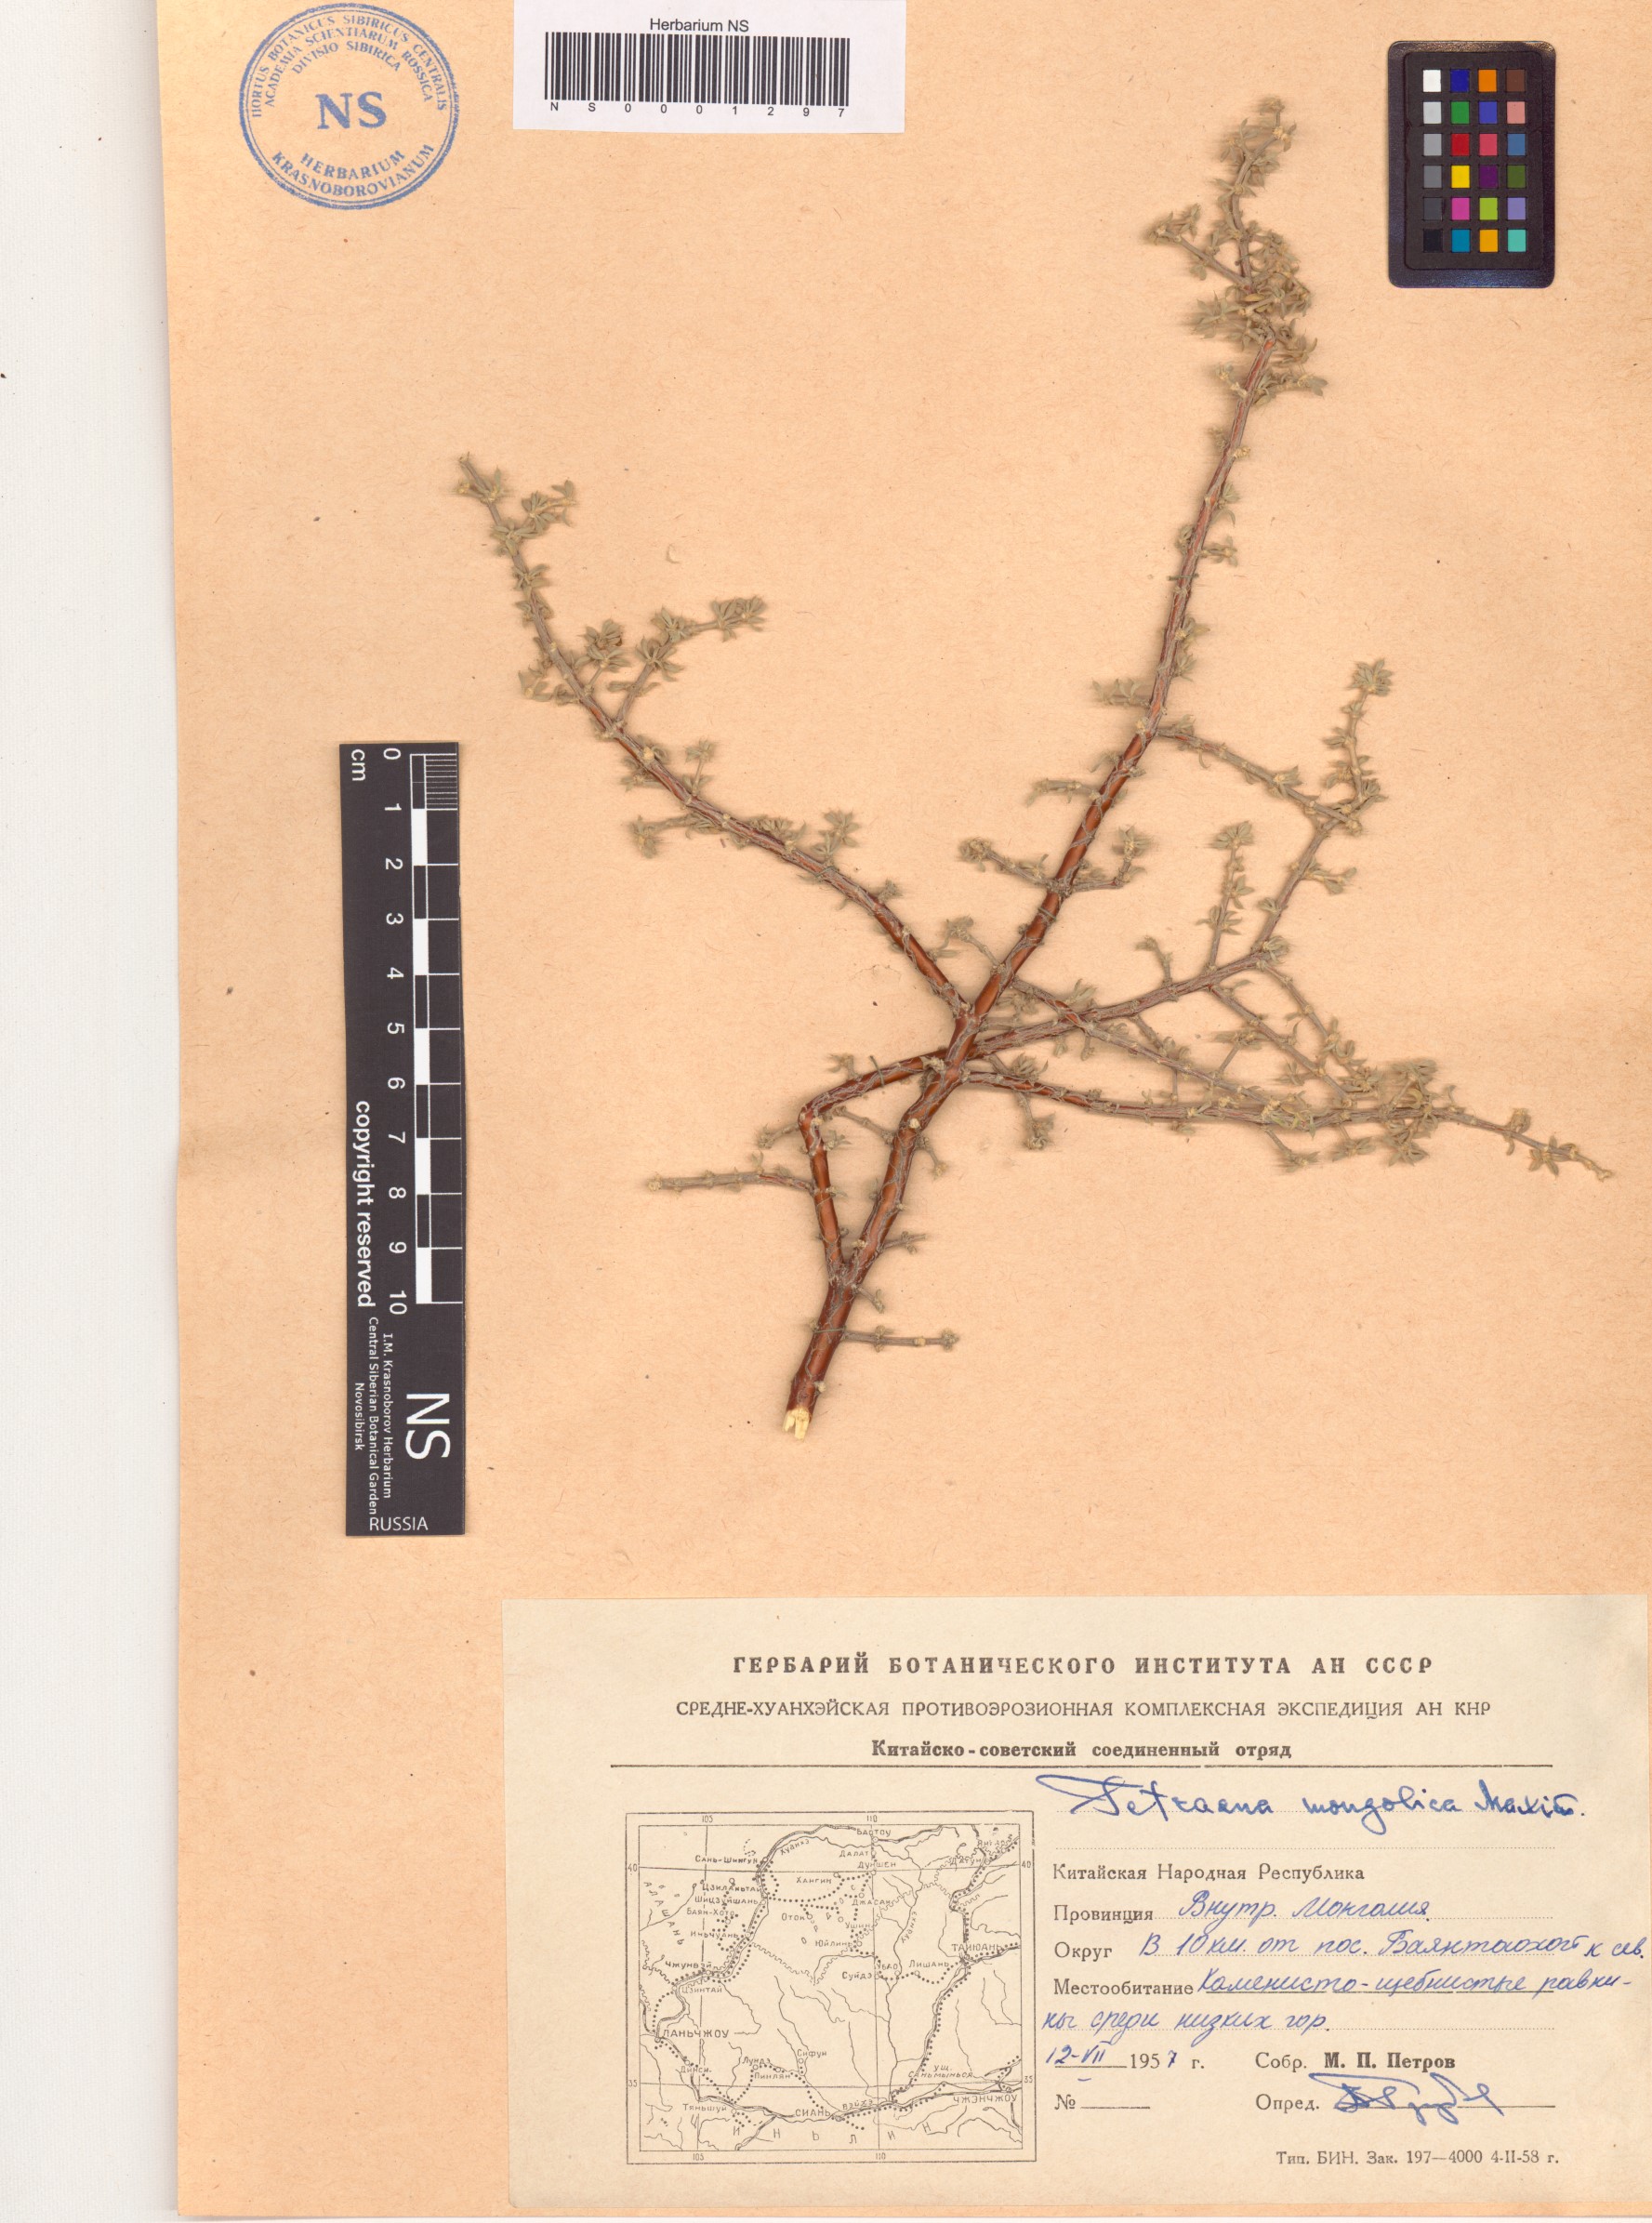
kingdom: Plantae
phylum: Tracheophyta
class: Magnoliopsida
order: Zygophyllales
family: Zygophyllaceae
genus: Tetraena
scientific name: Tetraena mongolica
